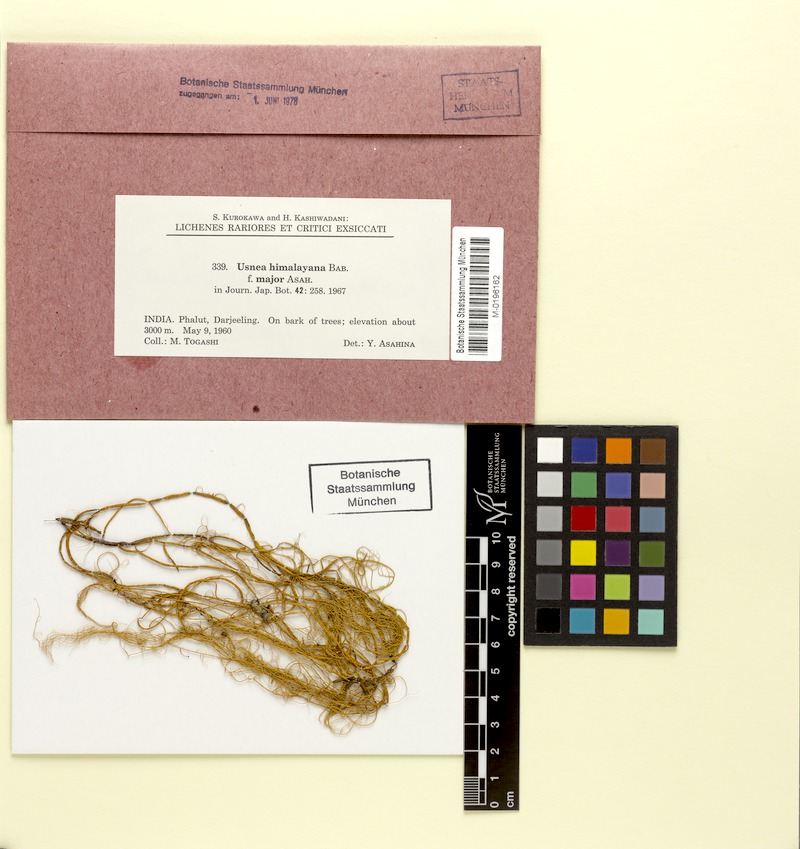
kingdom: Fungi
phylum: Ascomycota
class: Lecanoromycetes
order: Lecanorales
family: Parmeliaceae
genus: Usnea
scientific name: Usnea himalayana
